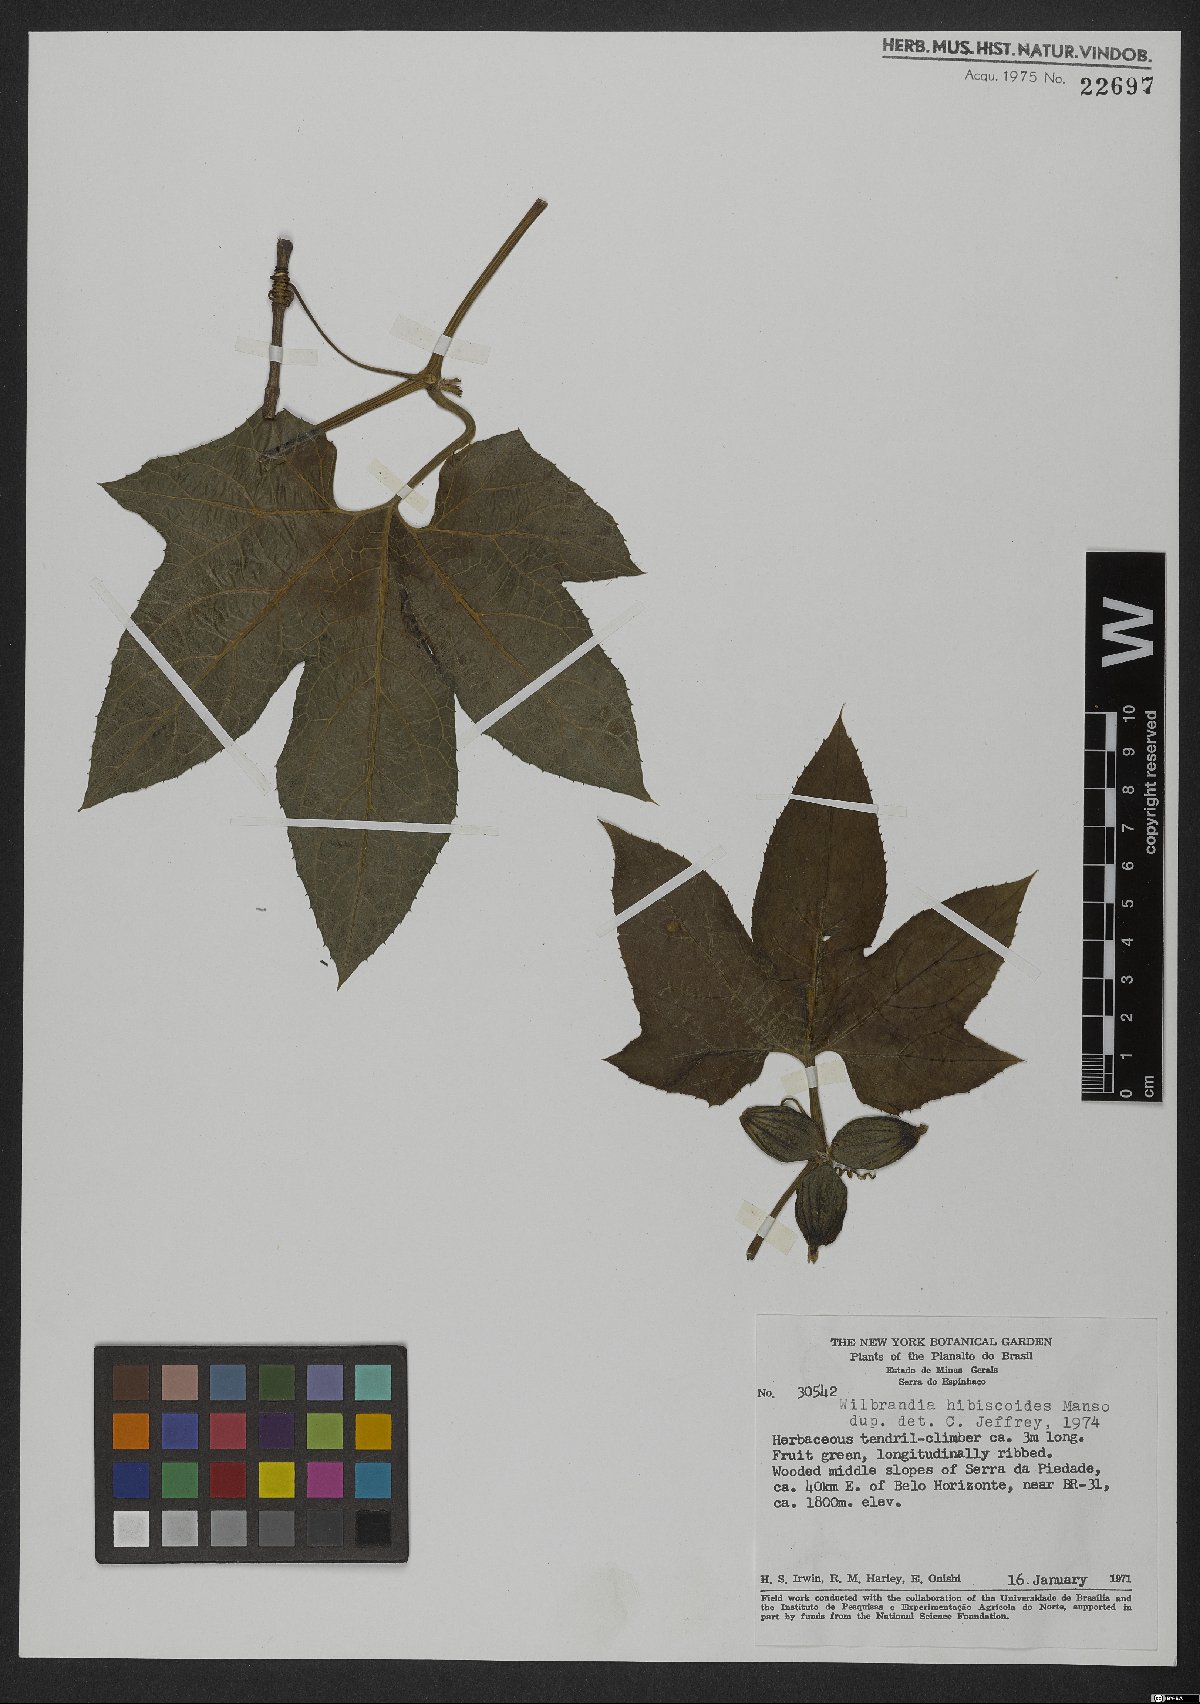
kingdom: Plantae
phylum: Tracheophyta
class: Magnoliopsida
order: Cucurbitales
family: Cucurbitaceae
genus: Wilbrandia
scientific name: Wilbrandia hibiscoides
